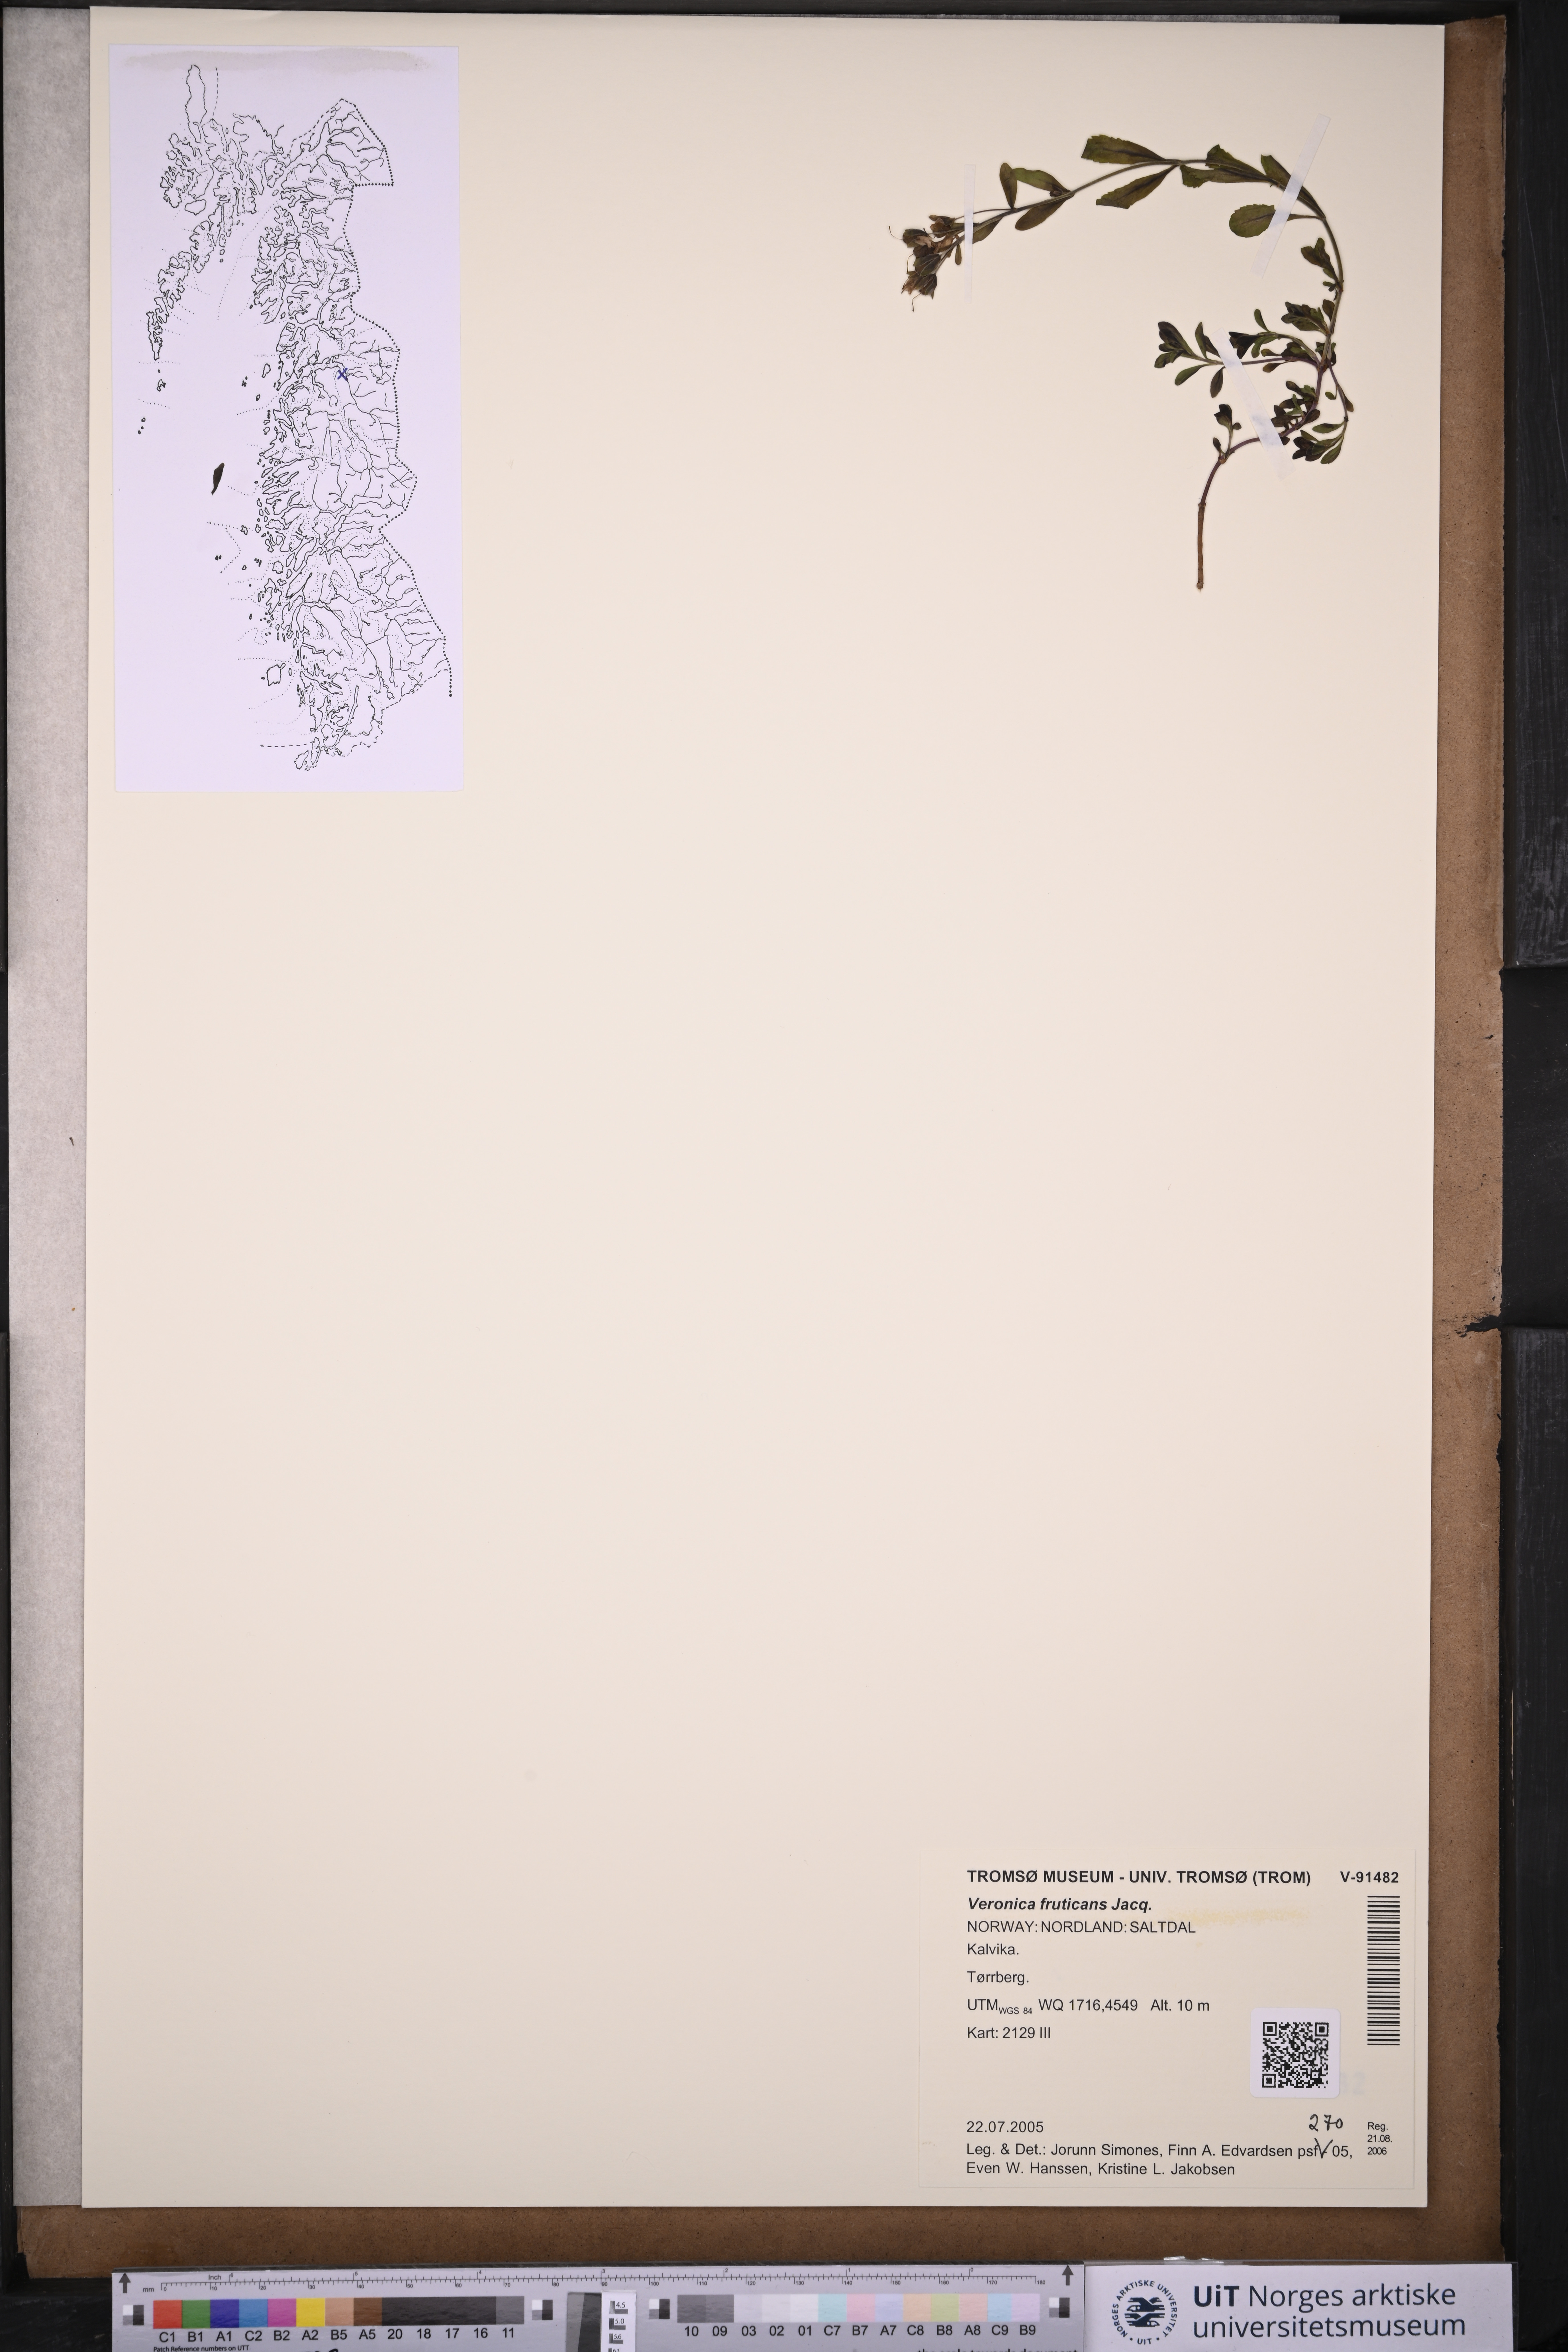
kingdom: Plantae
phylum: Tracheophyta
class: Magnoliopsida
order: Lamiales
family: Plantaginaceae
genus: Veronica
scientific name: Veronica fruticans
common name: Rock speedwell
